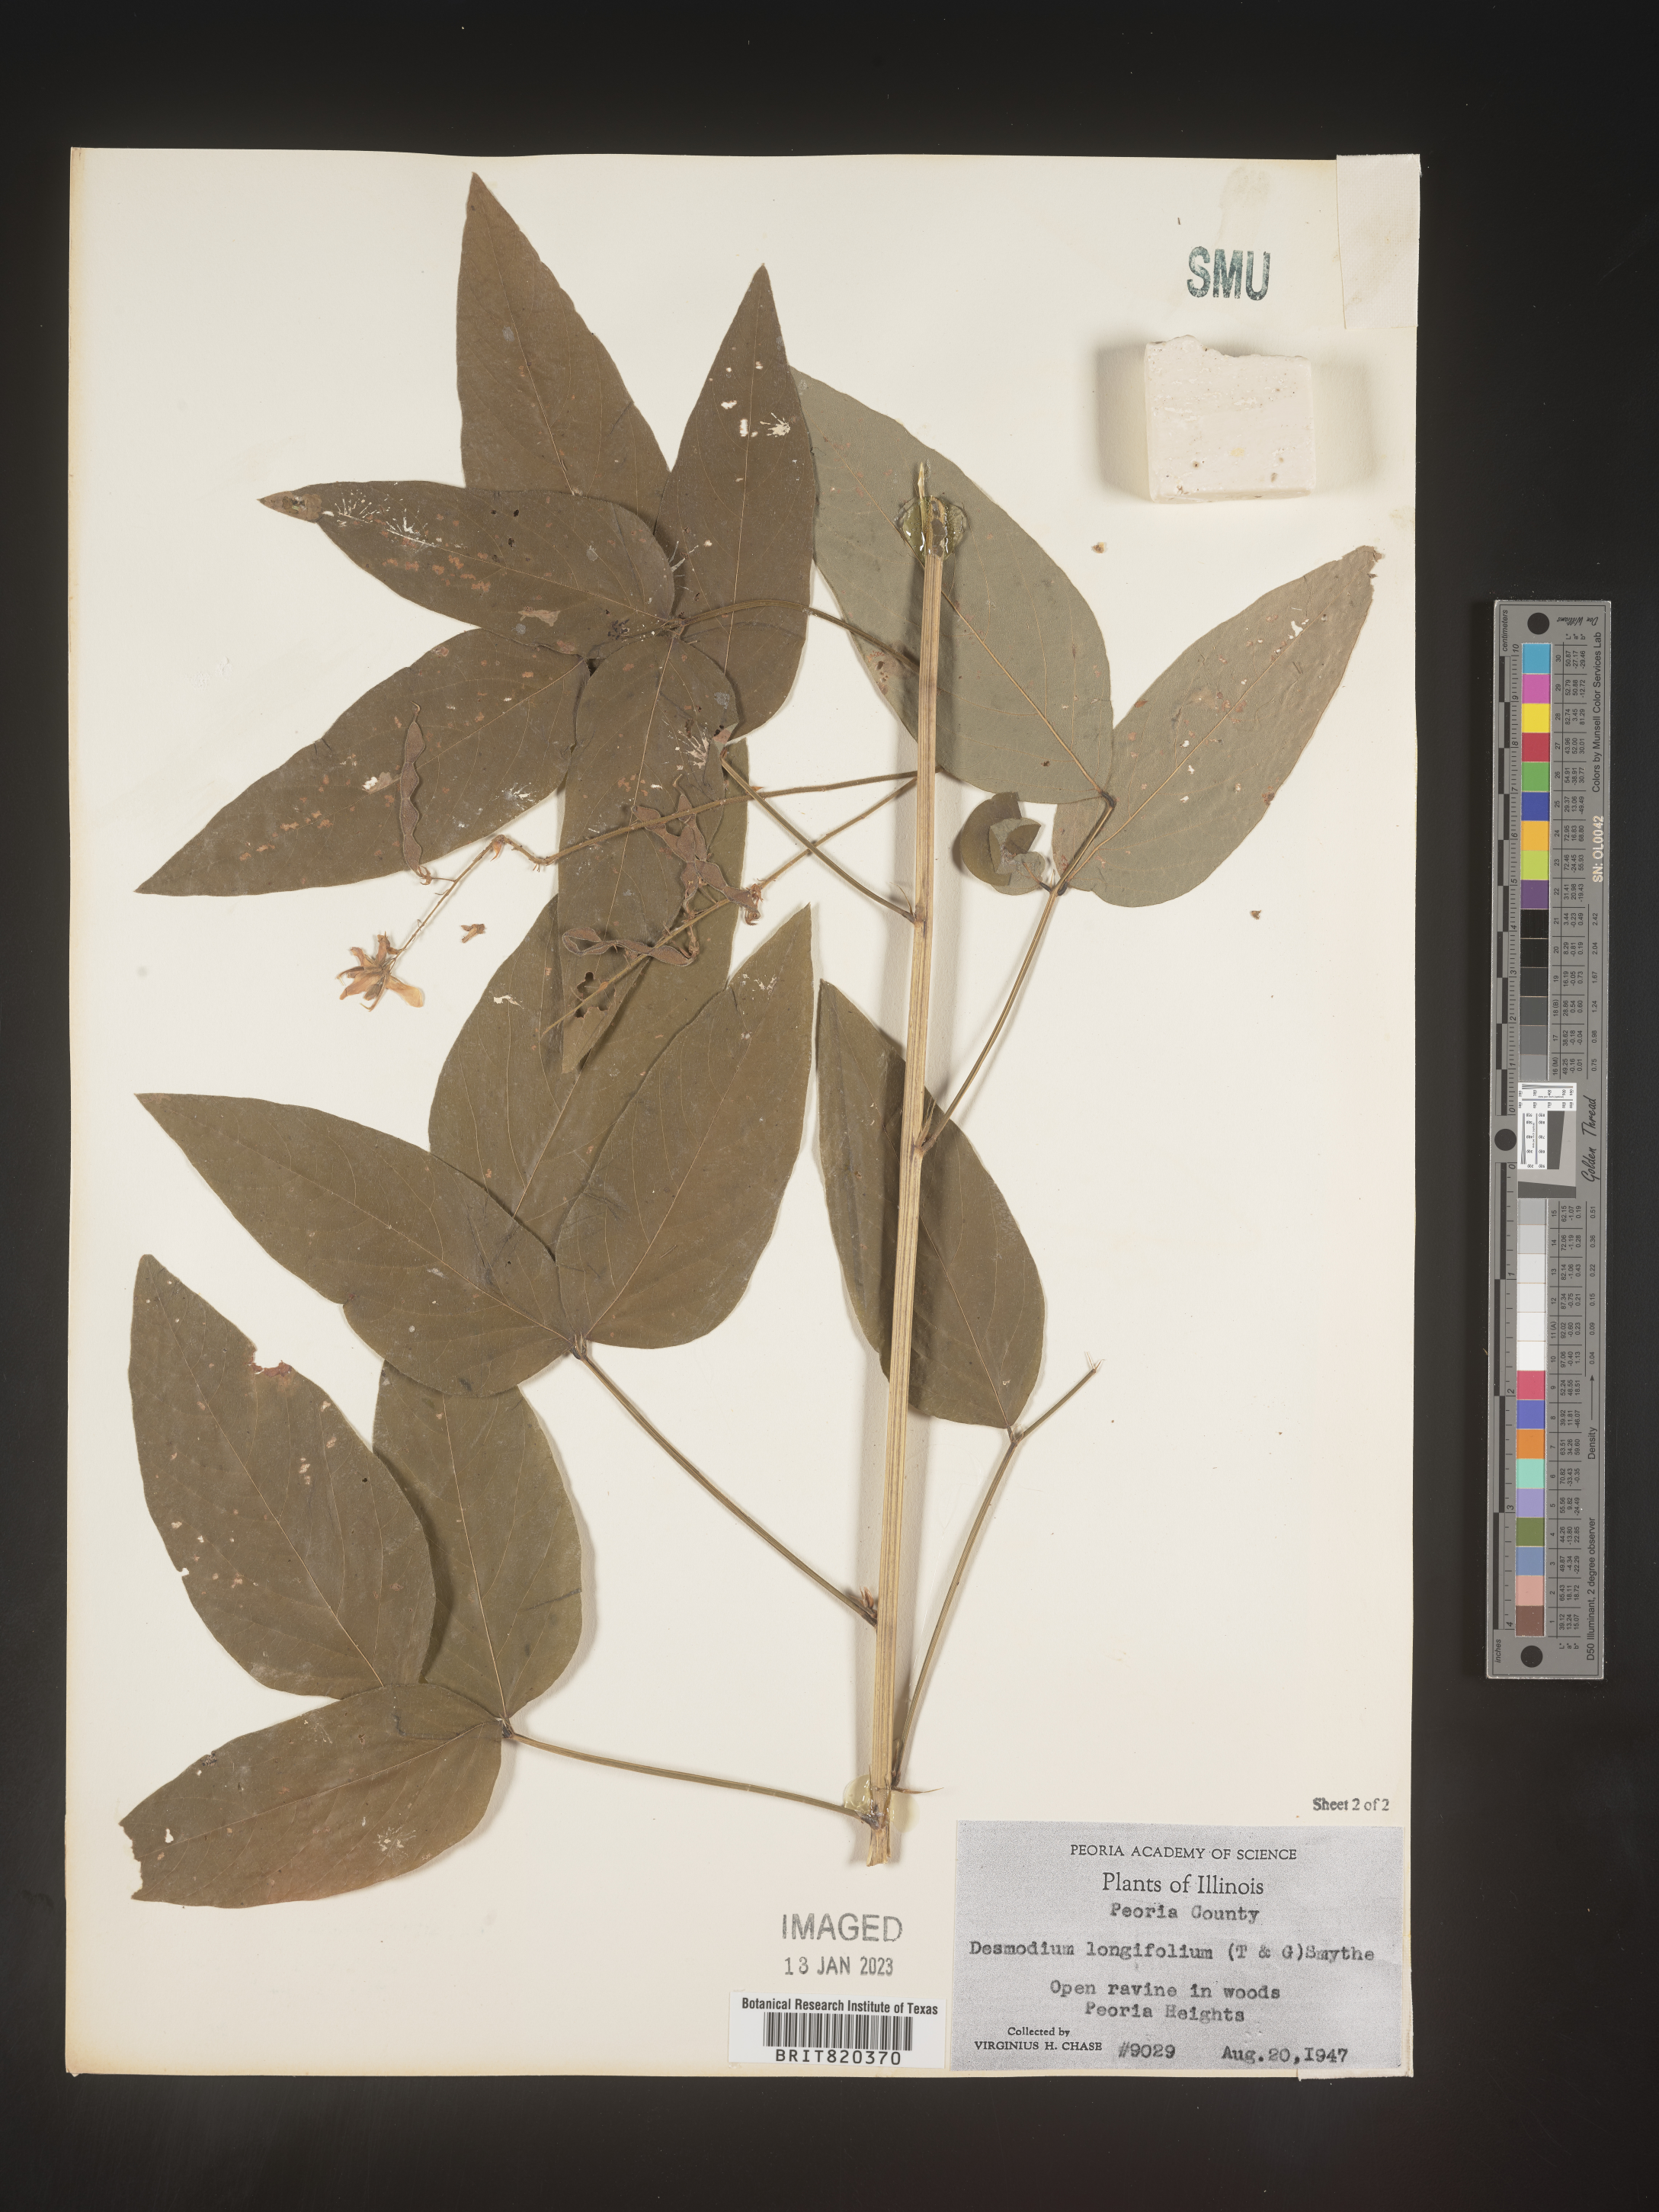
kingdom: Plantae
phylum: Tracheophyta
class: Magnoliopsida
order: Fabales
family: Fabaceae
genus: Desmodium
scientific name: Desmodium
